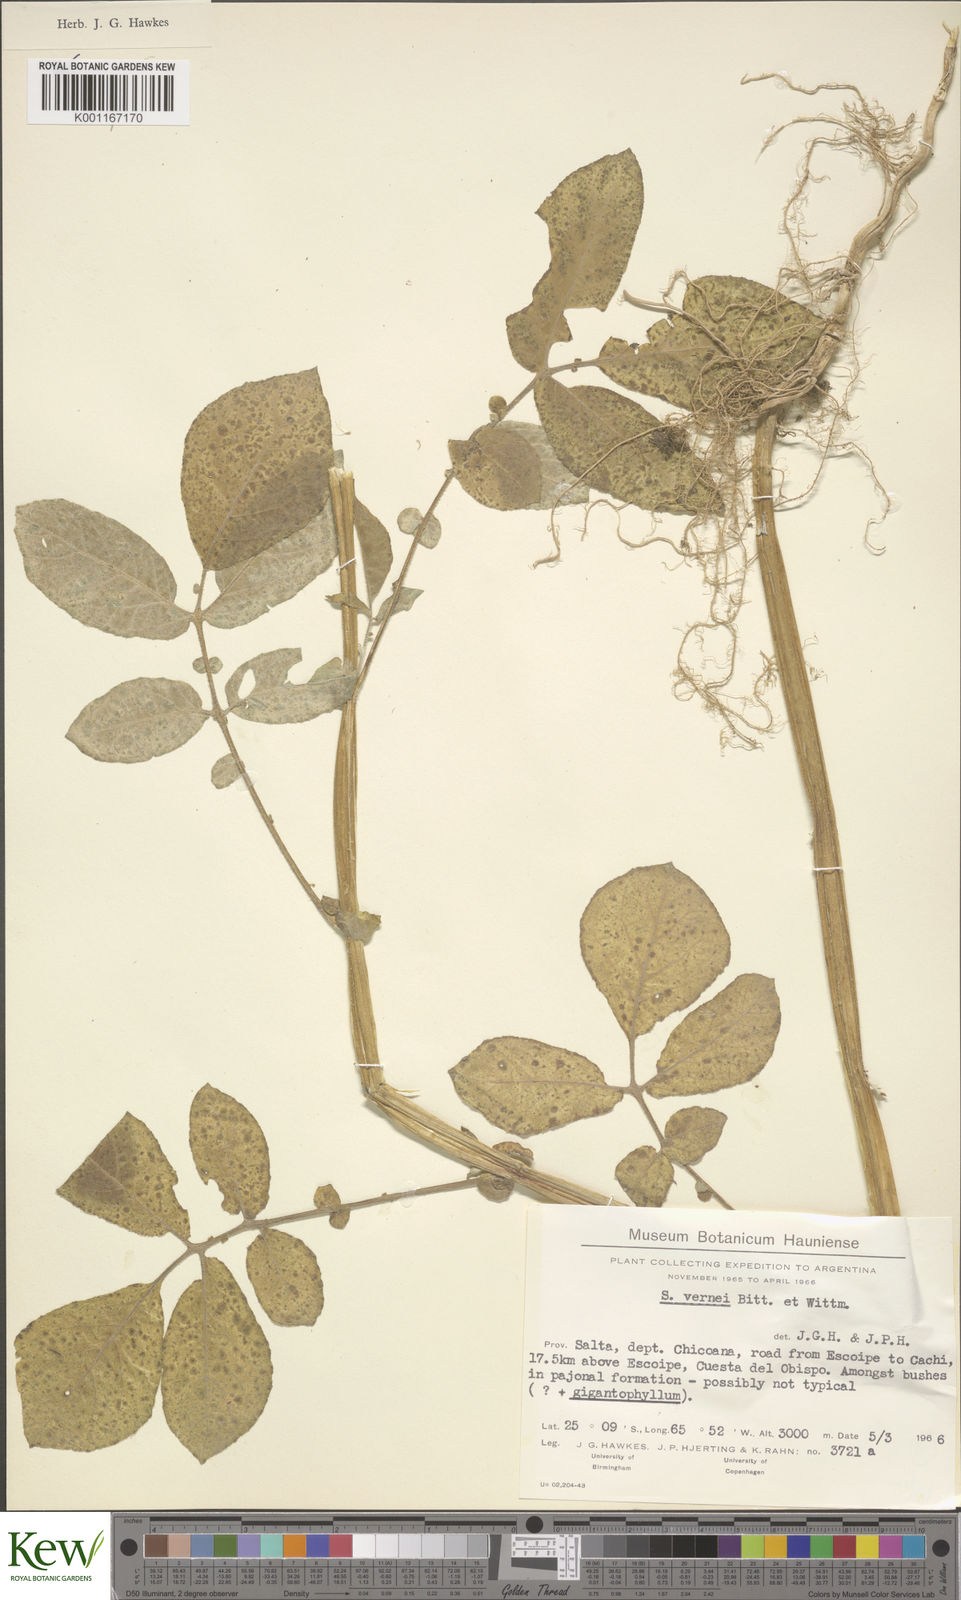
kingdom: Plantae
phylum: Tracheophyta
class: Magnoliopsida
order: Solanales
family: Solanaceae
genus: Solanum
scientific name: Solanum vernei
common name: Purple potato
